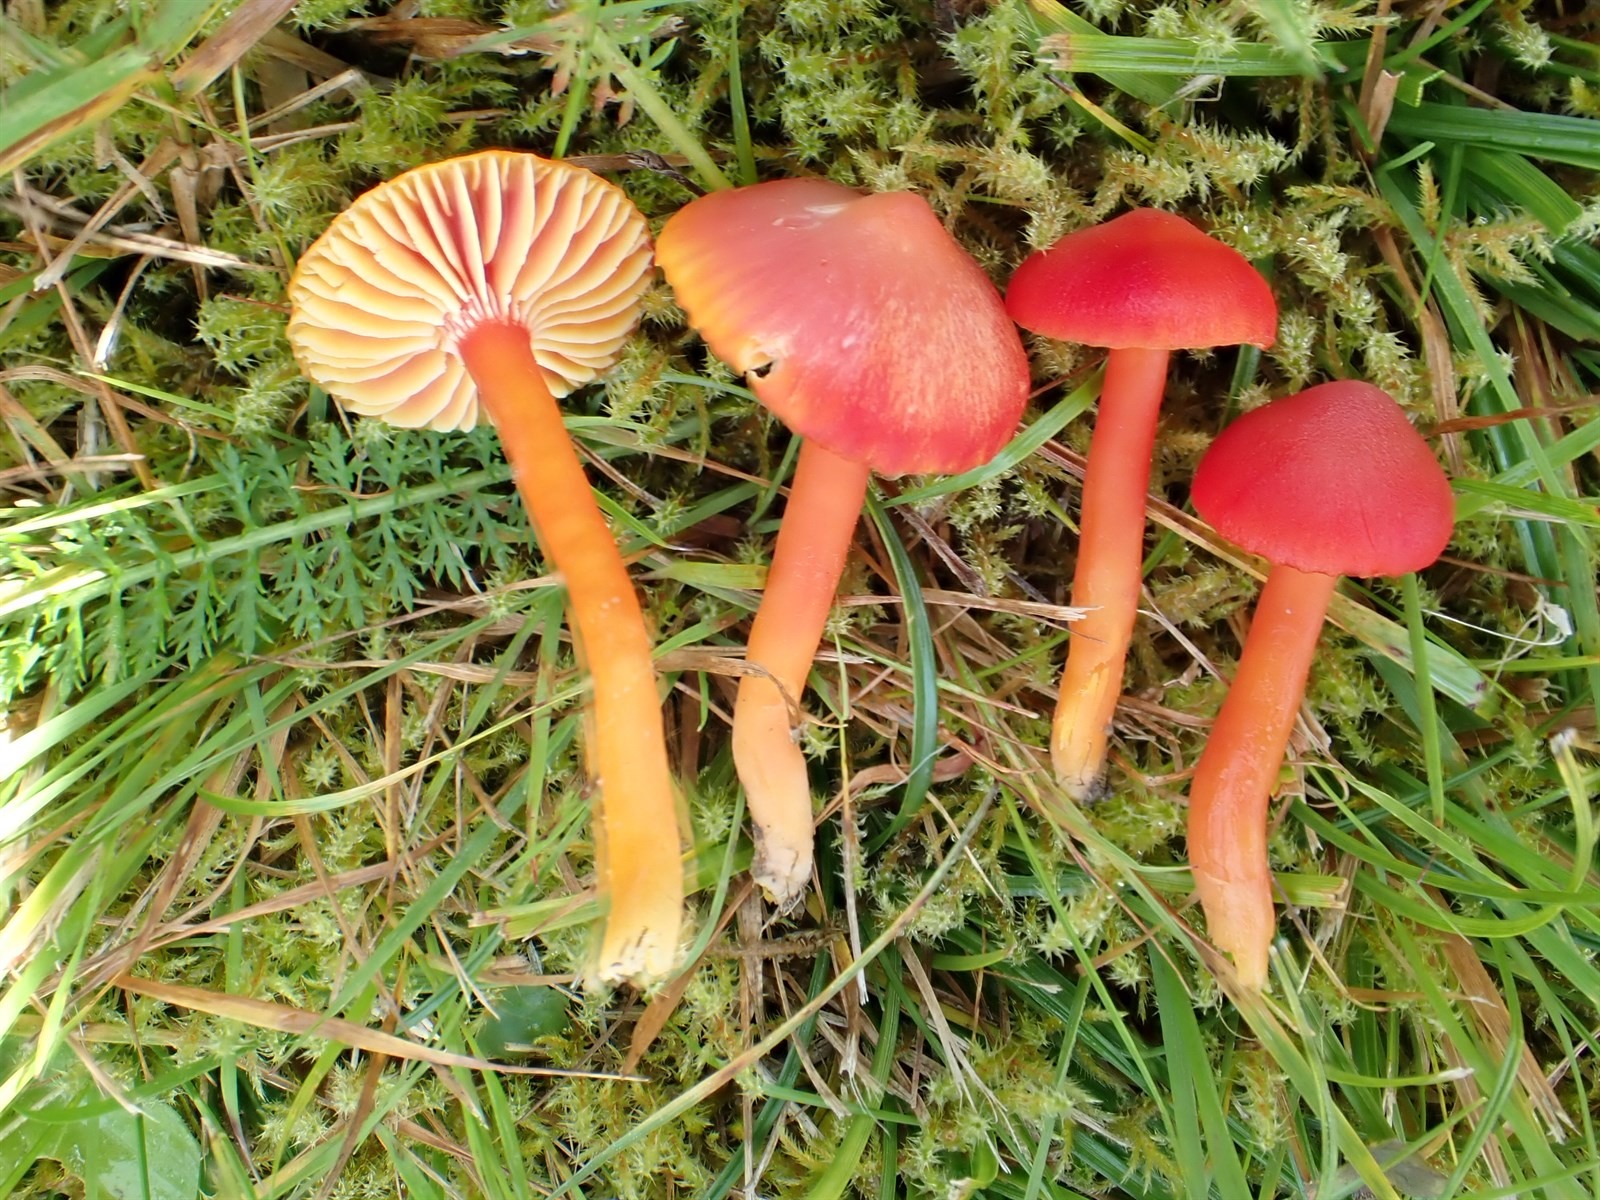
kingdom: Fungi
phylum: Basidiomycota
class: Agaricomycetes
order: Agaricales
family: Hygrophoraceae
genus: Hygrocybe
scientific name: Hygrocybe coccinea
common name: Scarlet hood
